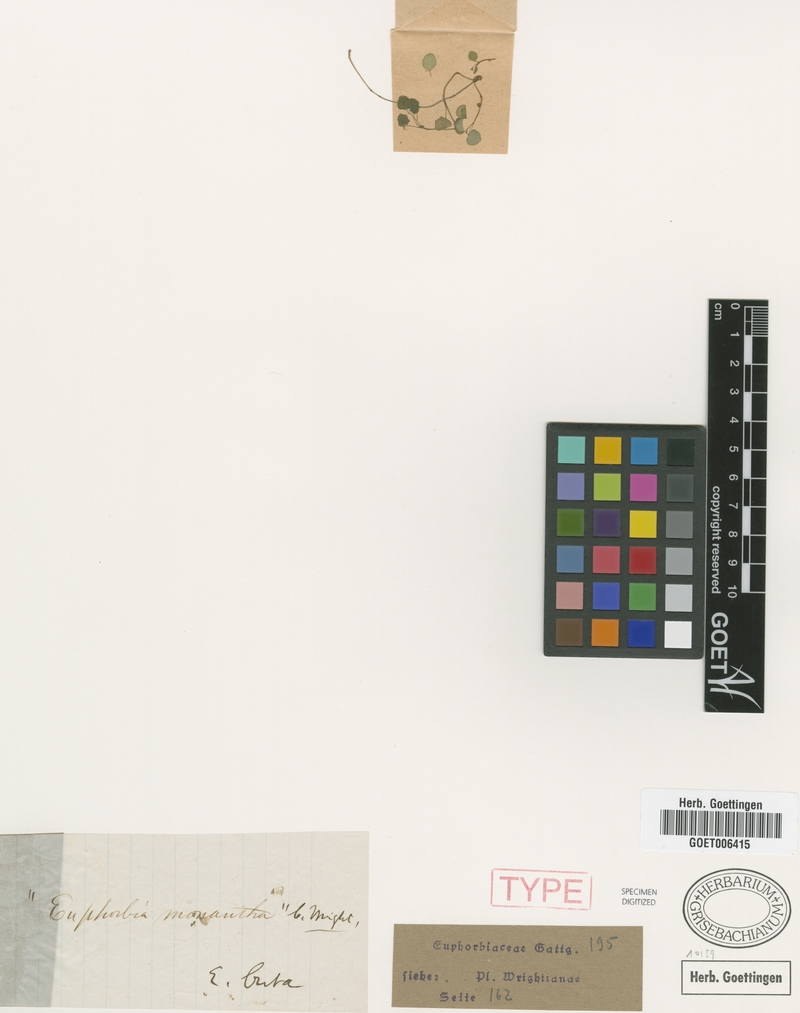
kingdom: Plantae
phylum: Tracheophyta
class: Magnoliopsida
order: Malpighiales
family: Euphorbiaceae
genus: Euphorbia
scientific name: Euphorbia monantha
